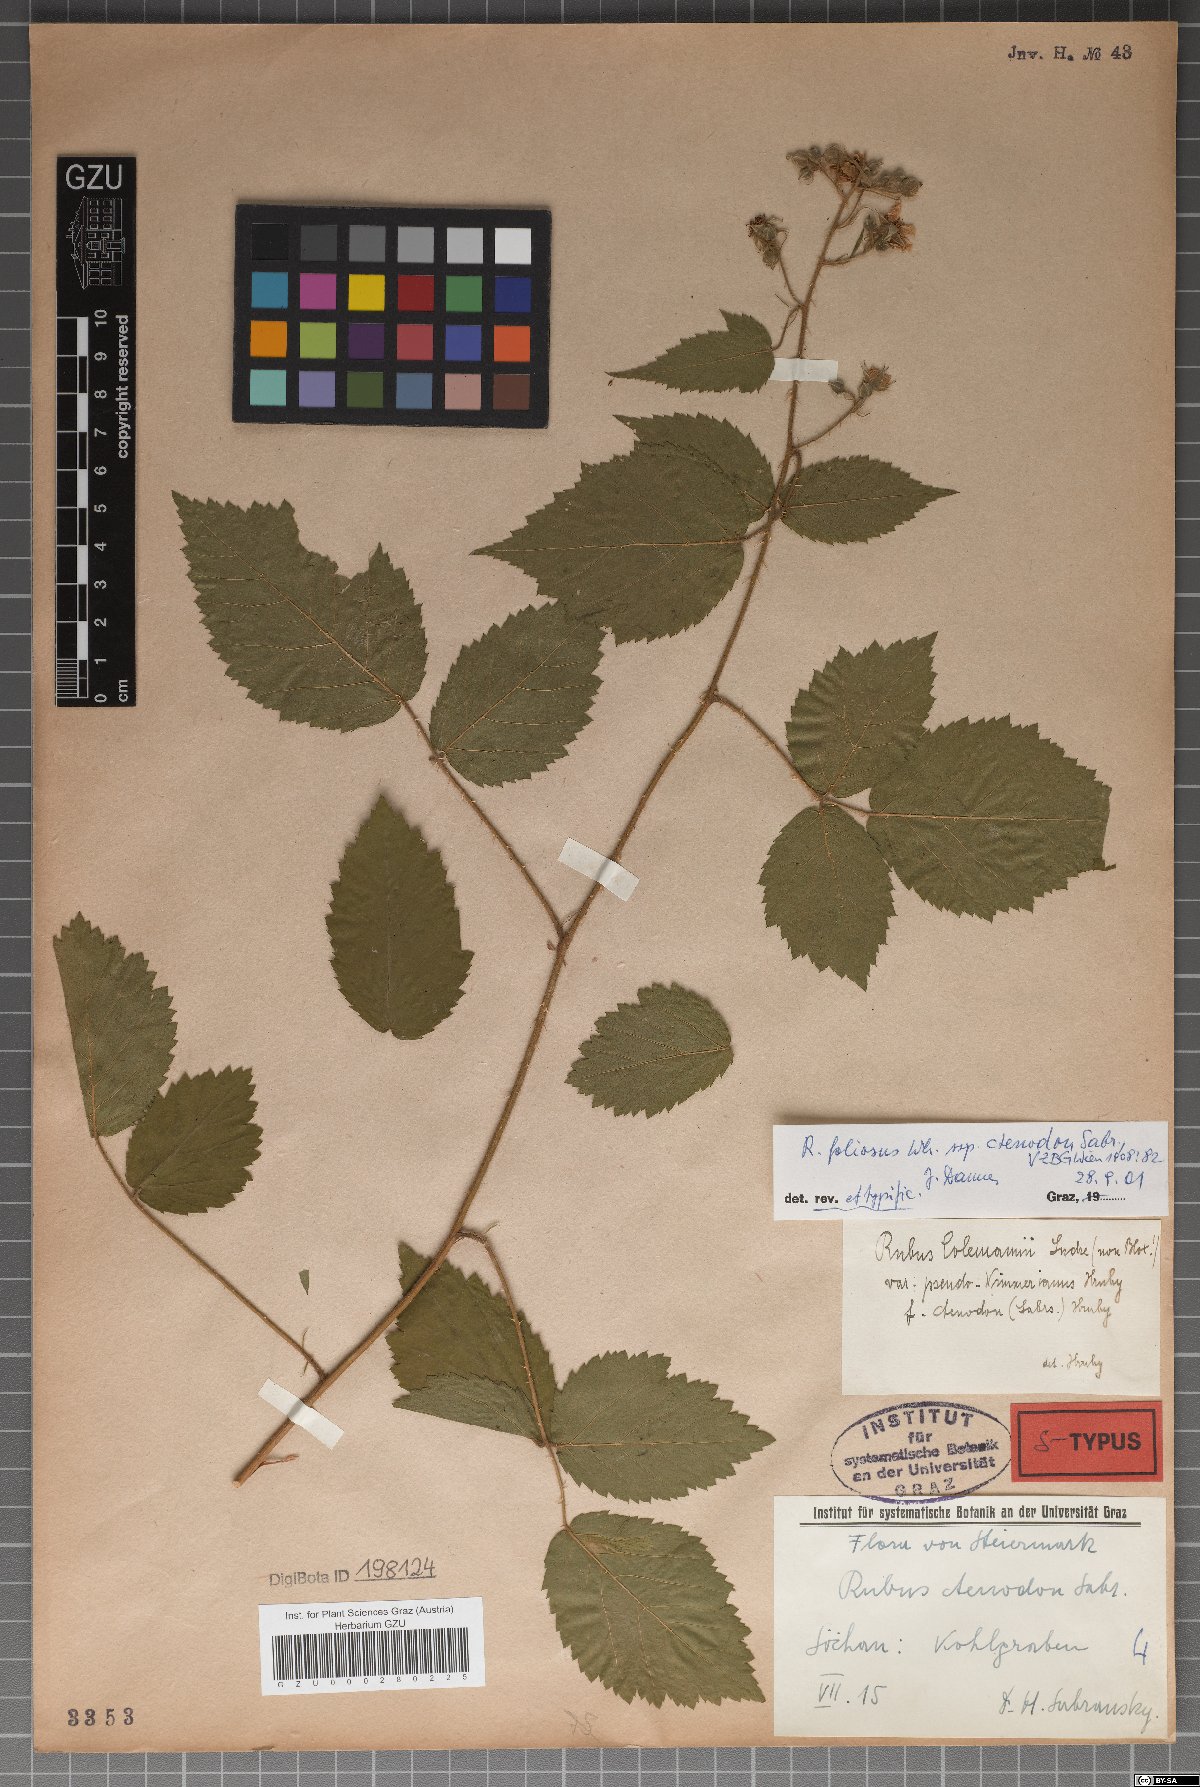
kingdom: Plantae
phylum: Tracheophyta
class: Magnoliopsida
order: Rosales
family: Rosaceae
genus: Rubus
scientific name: Rubus foliosus
